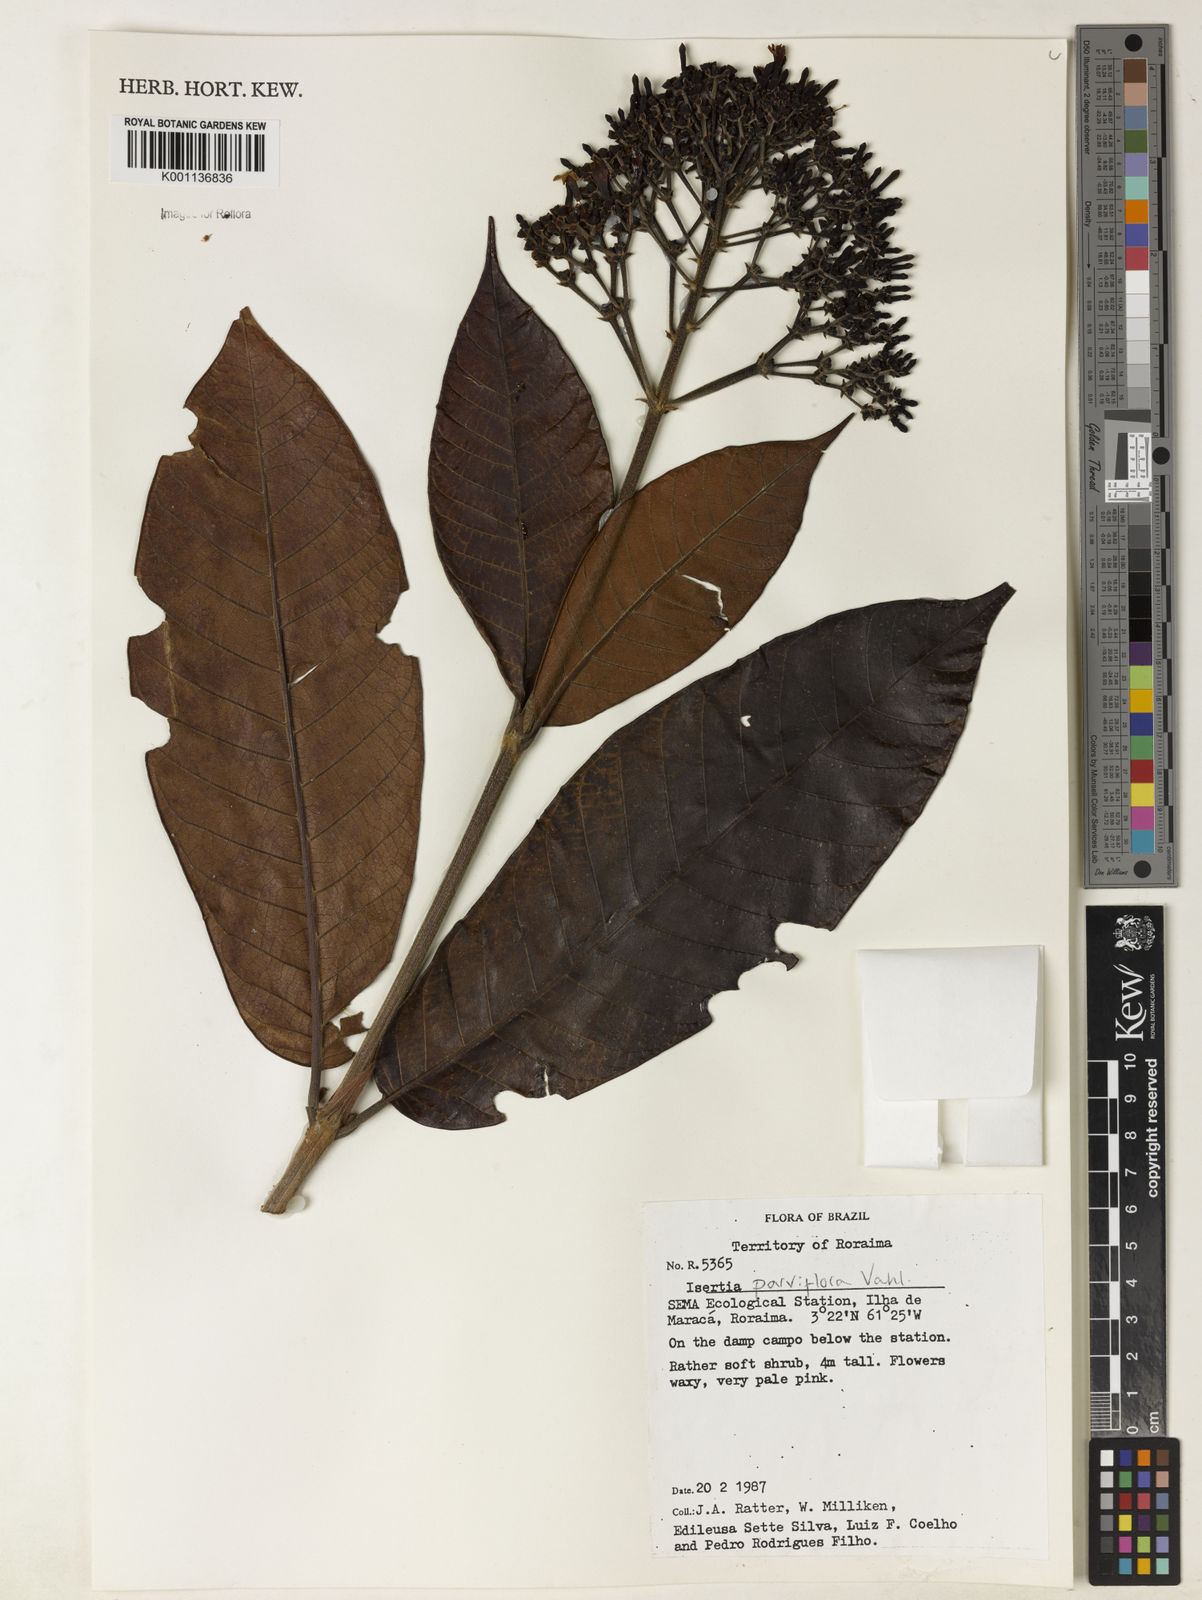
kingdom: Plantae
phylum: Tracheophyta
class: Magnoliopsida
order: Gentianales
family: Rubiaceae
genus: Isertia
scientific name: Isertia parviflora
